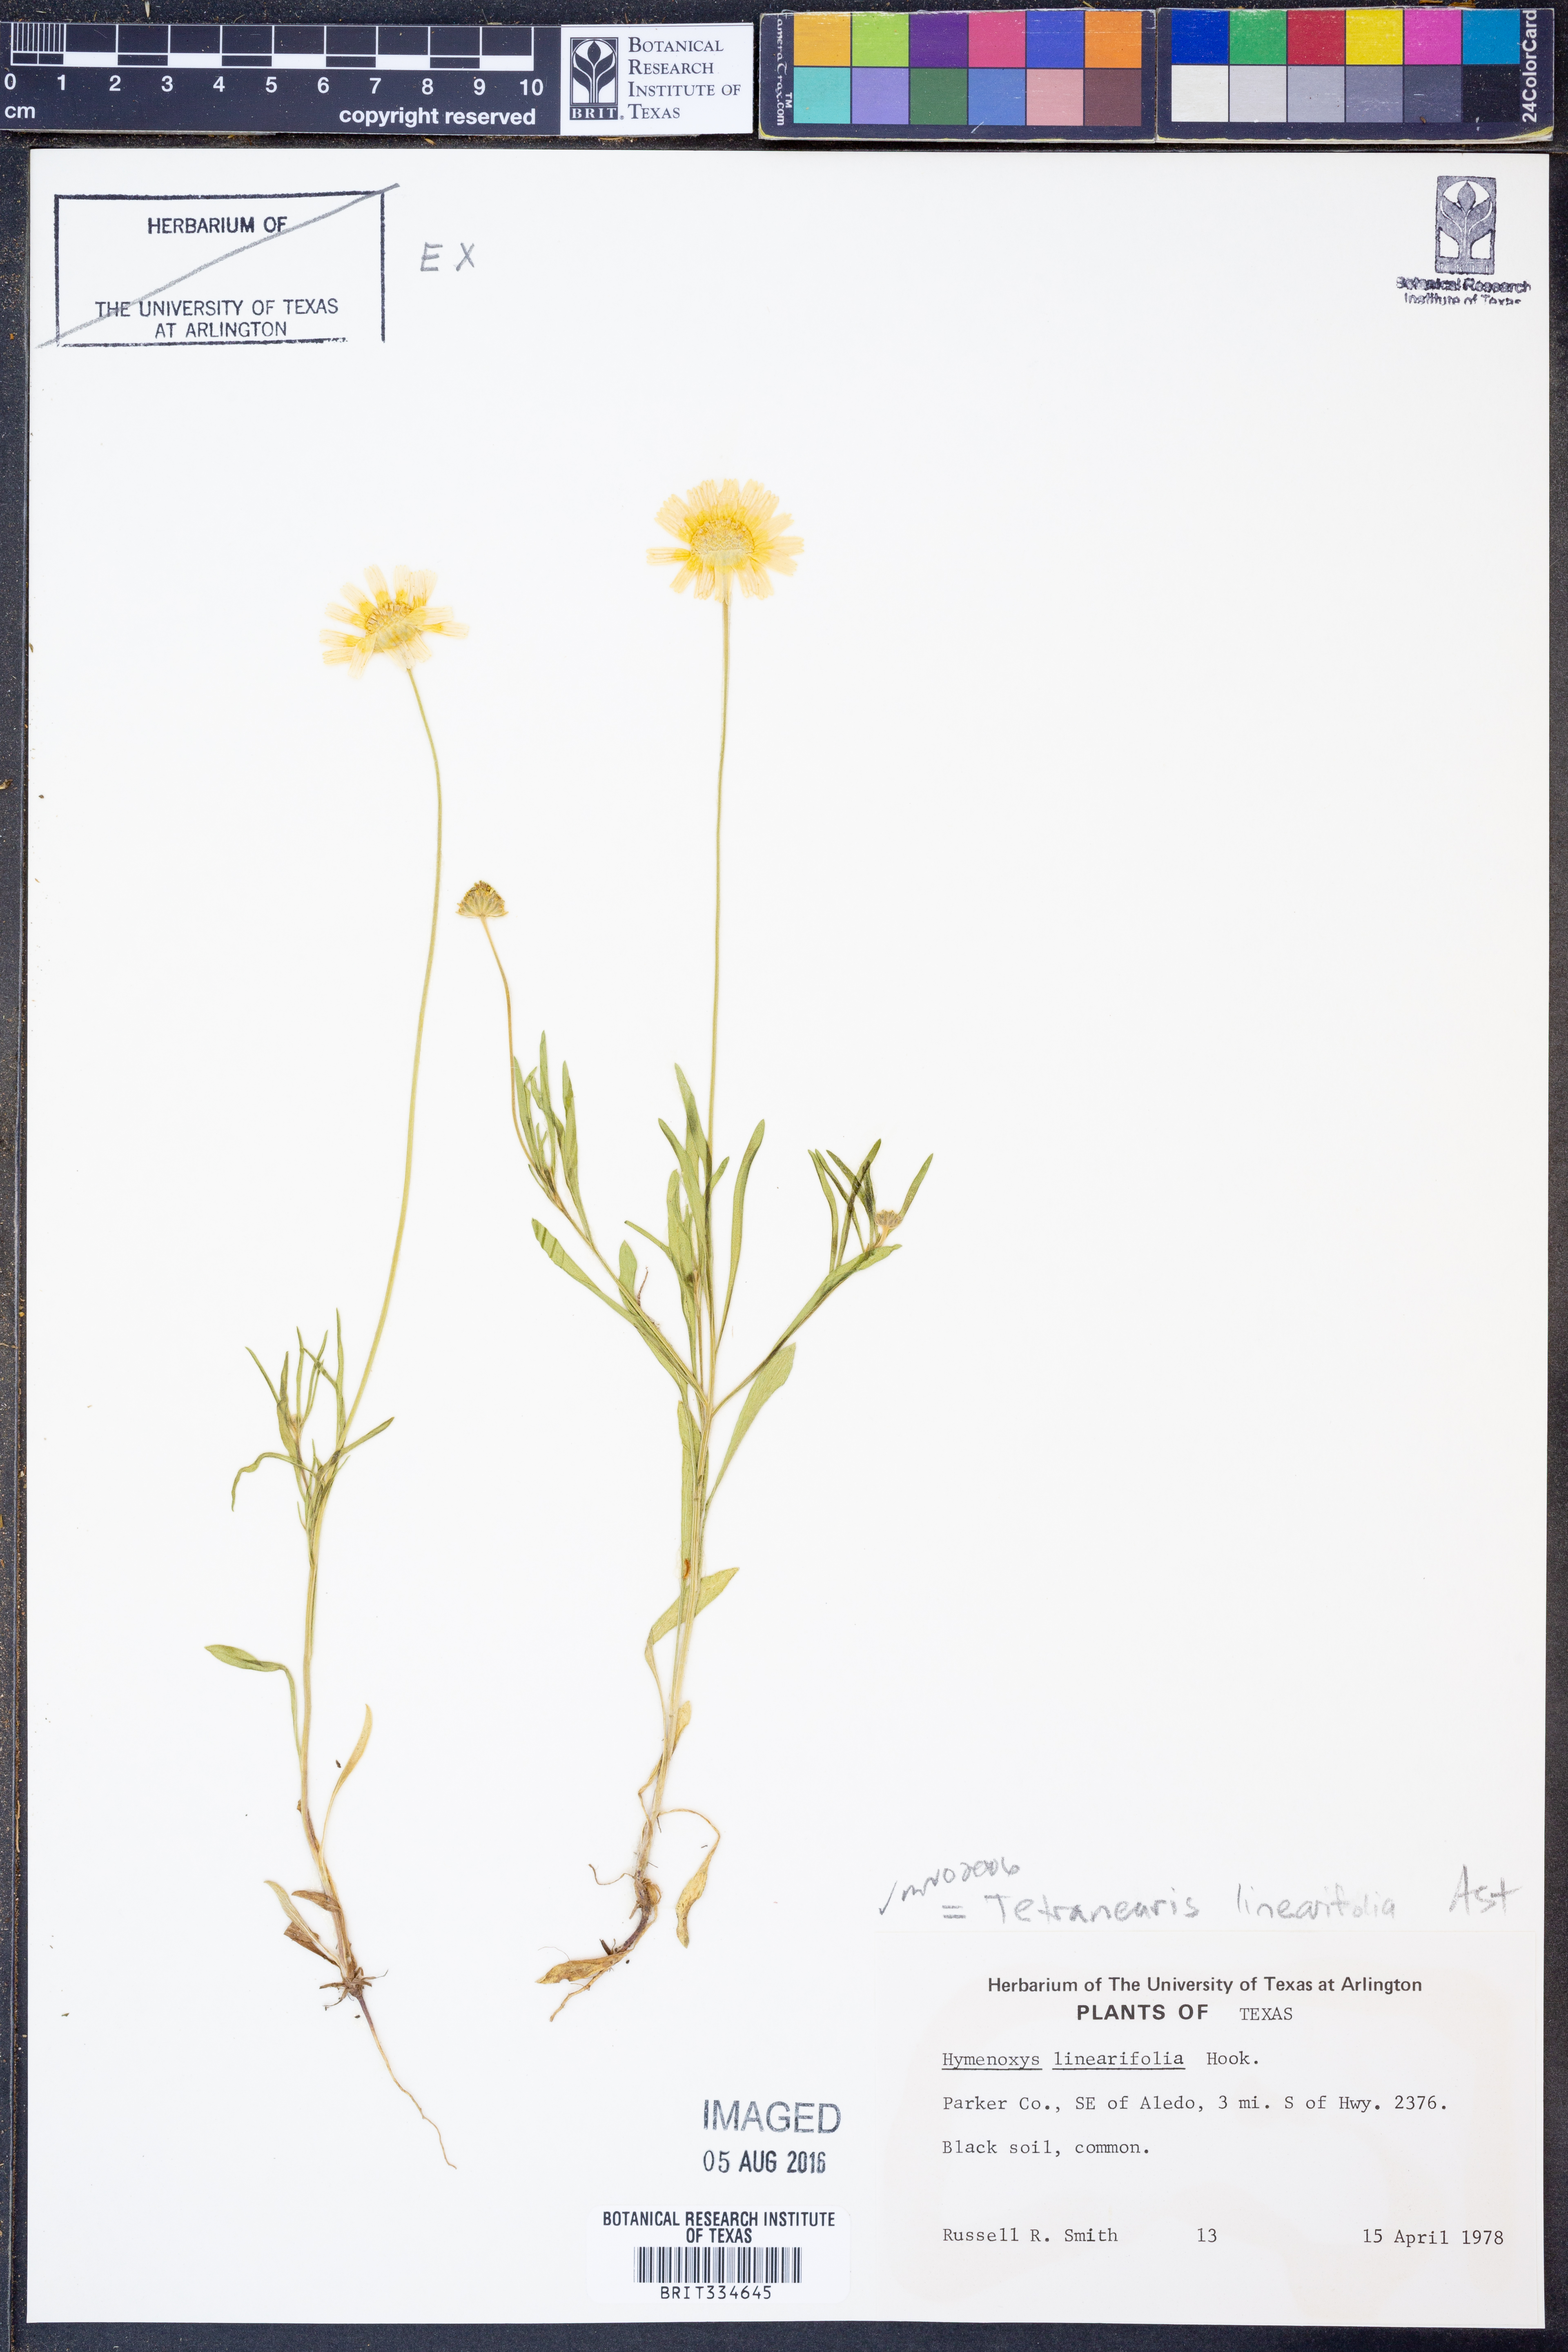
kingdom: Plantae
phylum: Tracheophyta
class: Magnoliopsida
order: Asterales
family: Asteraceae
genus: Tetraneuris
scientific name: Tetraneuris linearifolia
